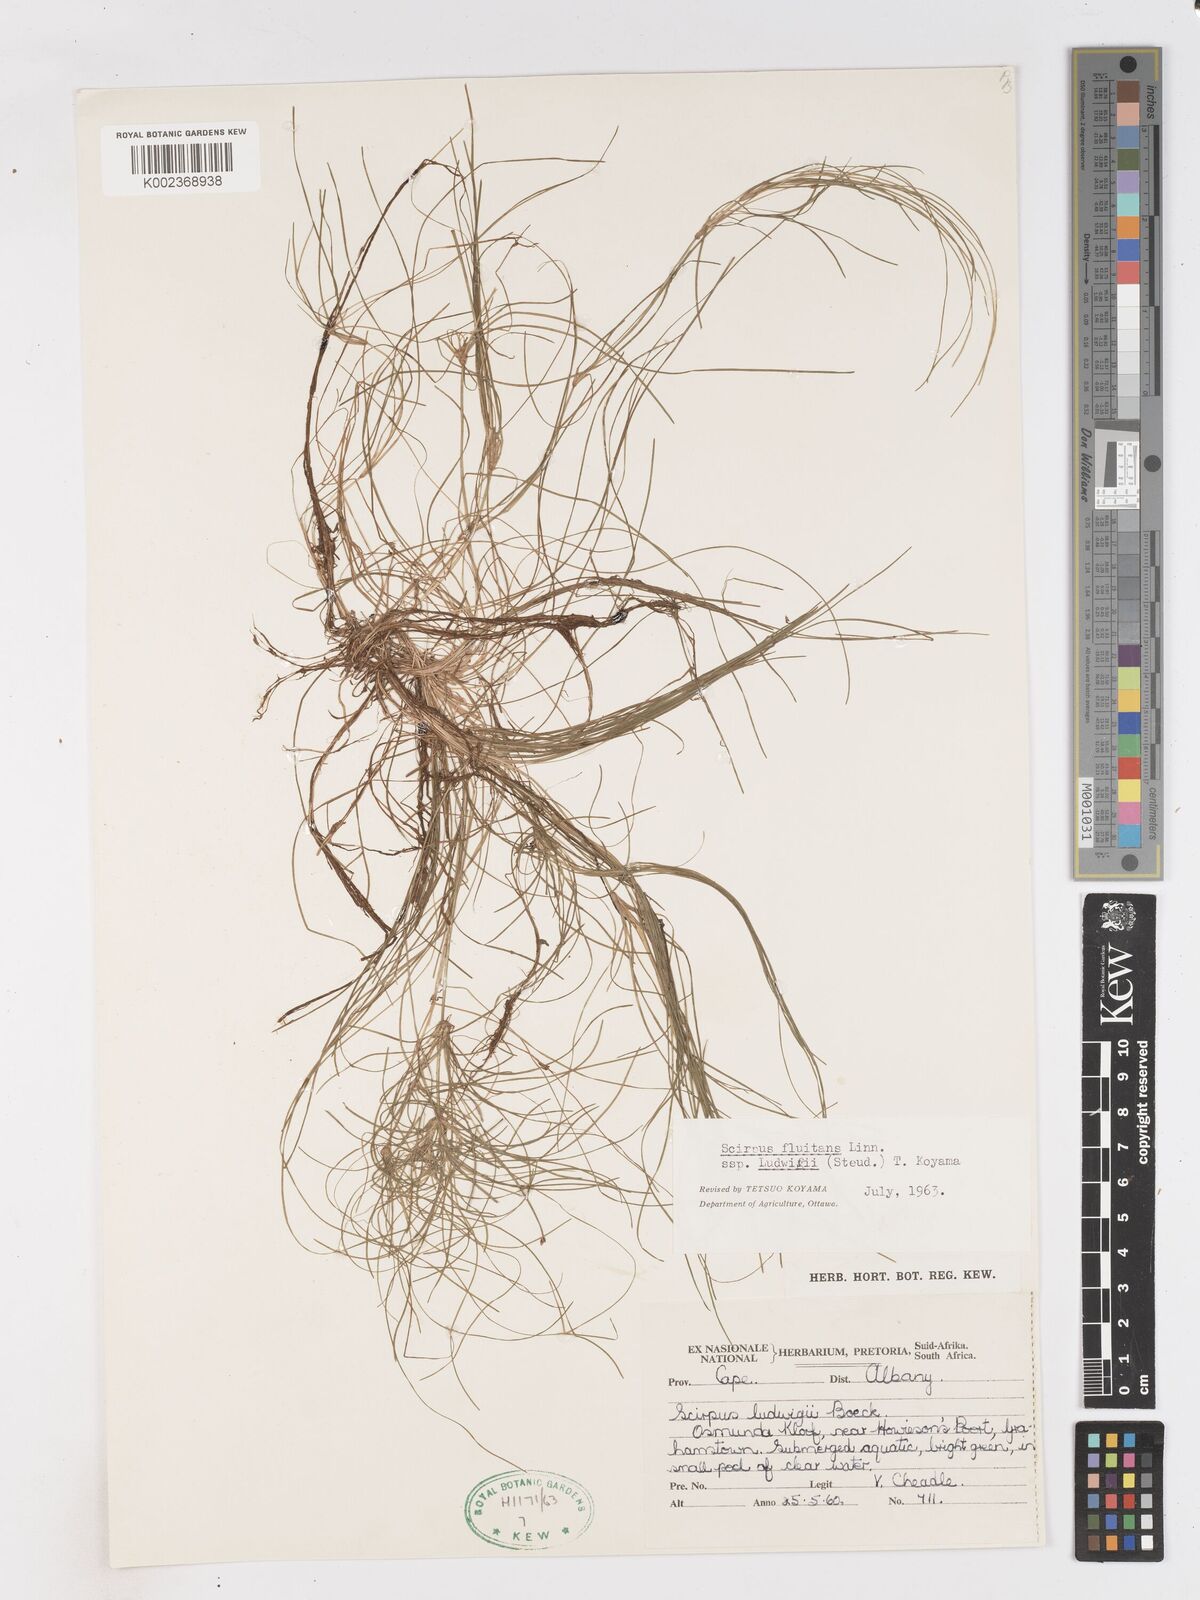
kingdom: Plantae
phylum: Tracheophyta
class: Liliopsida
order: Poales
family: Cyperaceae
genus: Isolepis
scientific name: Isolepis ludwigii
